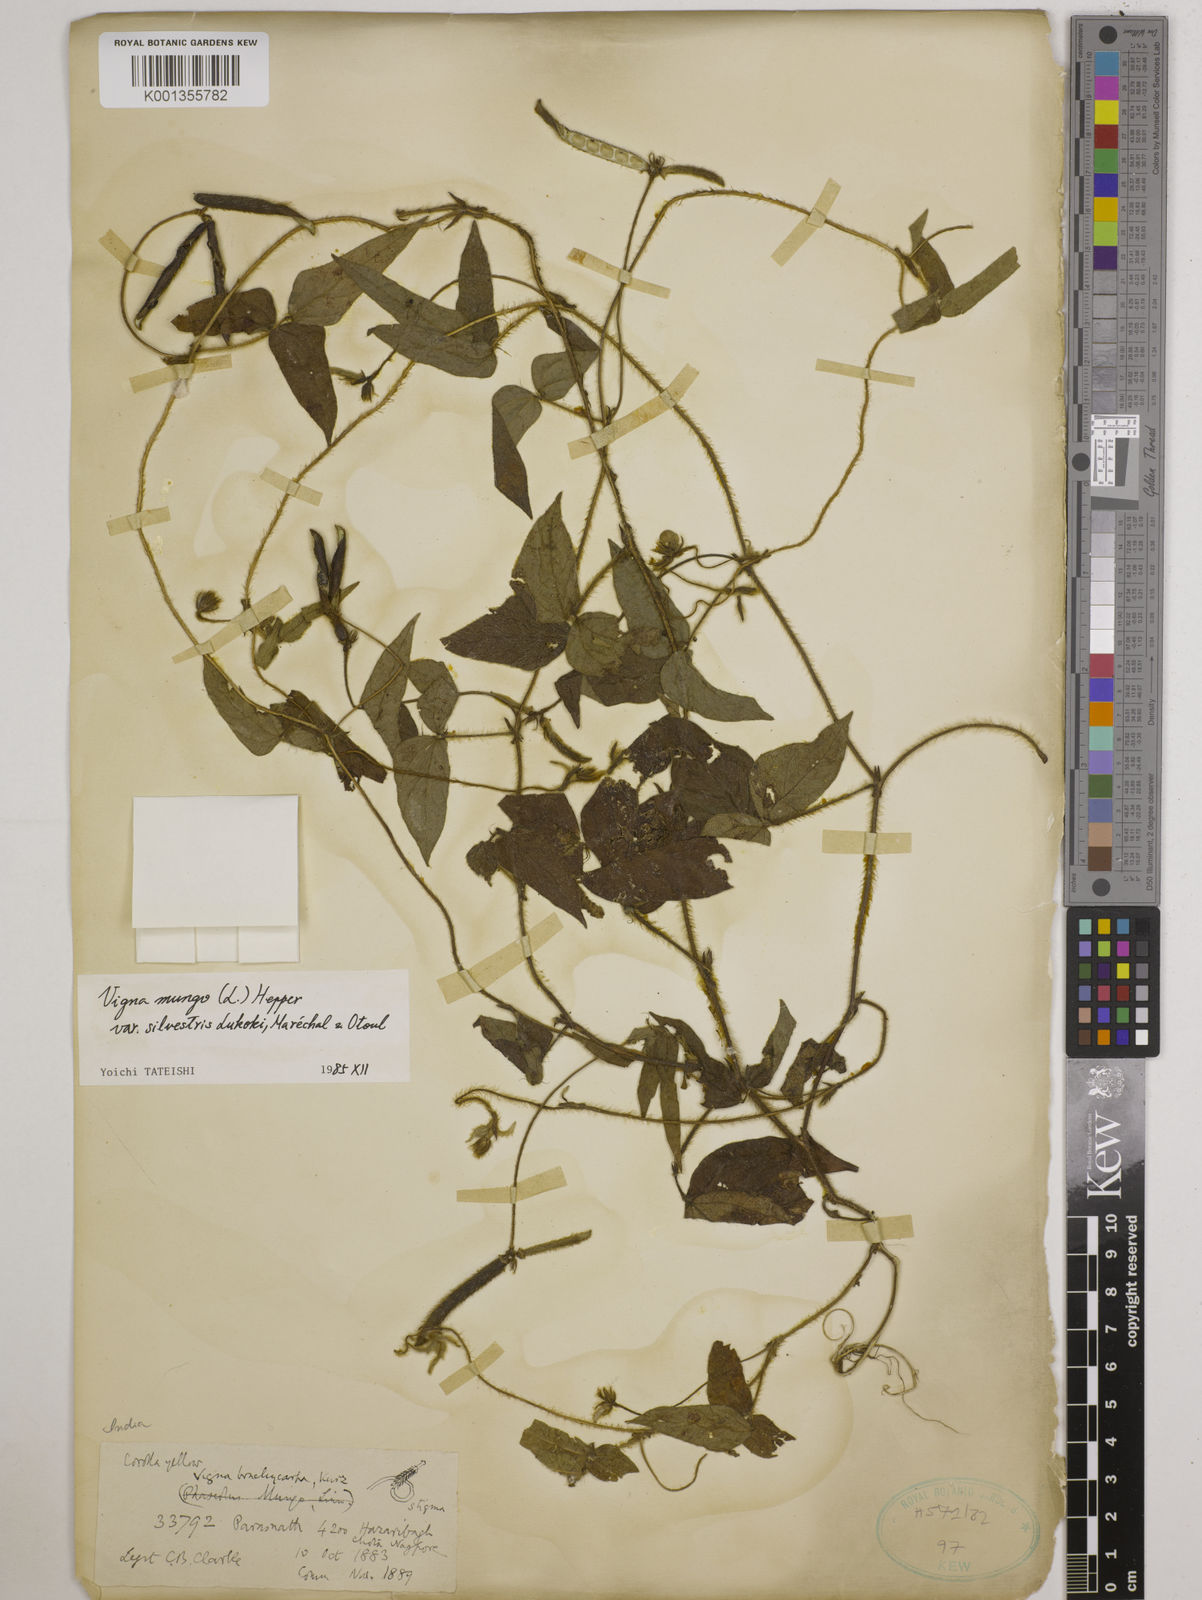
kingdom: Plantae
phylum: Tracheophyta
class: Magnoliopsida
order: Fabales
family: Fabaceae
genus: Vigna
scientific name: Vigna mungo
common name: Black gram
